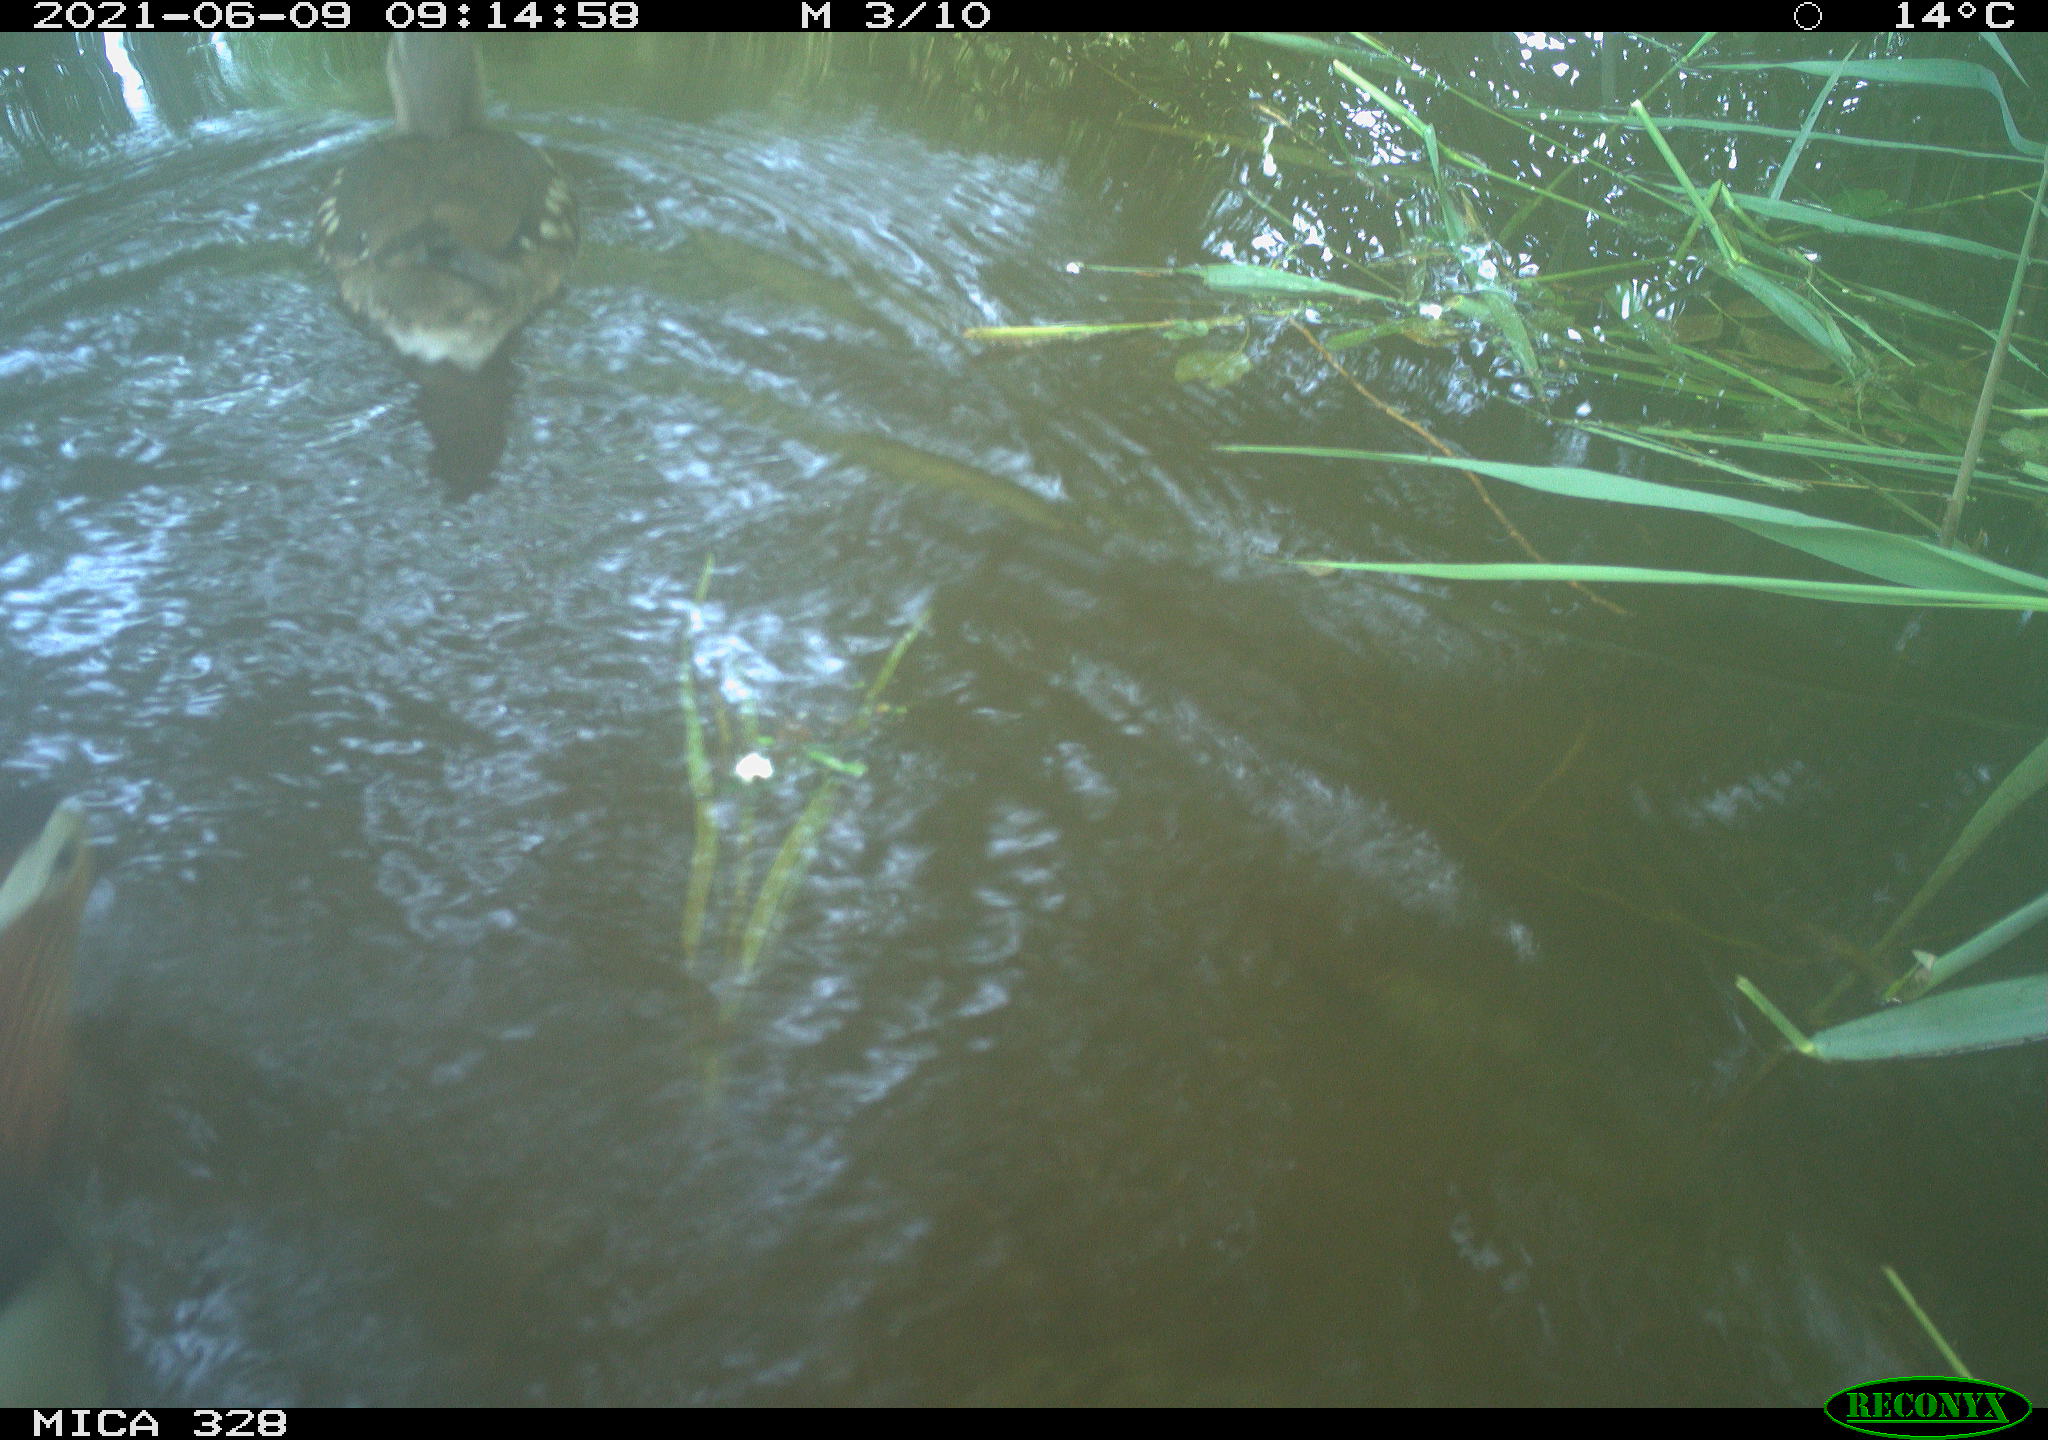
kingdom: Animalia
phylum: Chordata
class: Aves
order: Anseriformes
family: Anatidae
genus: Aix
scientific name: Aix galericulata
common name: Mandarin duck
